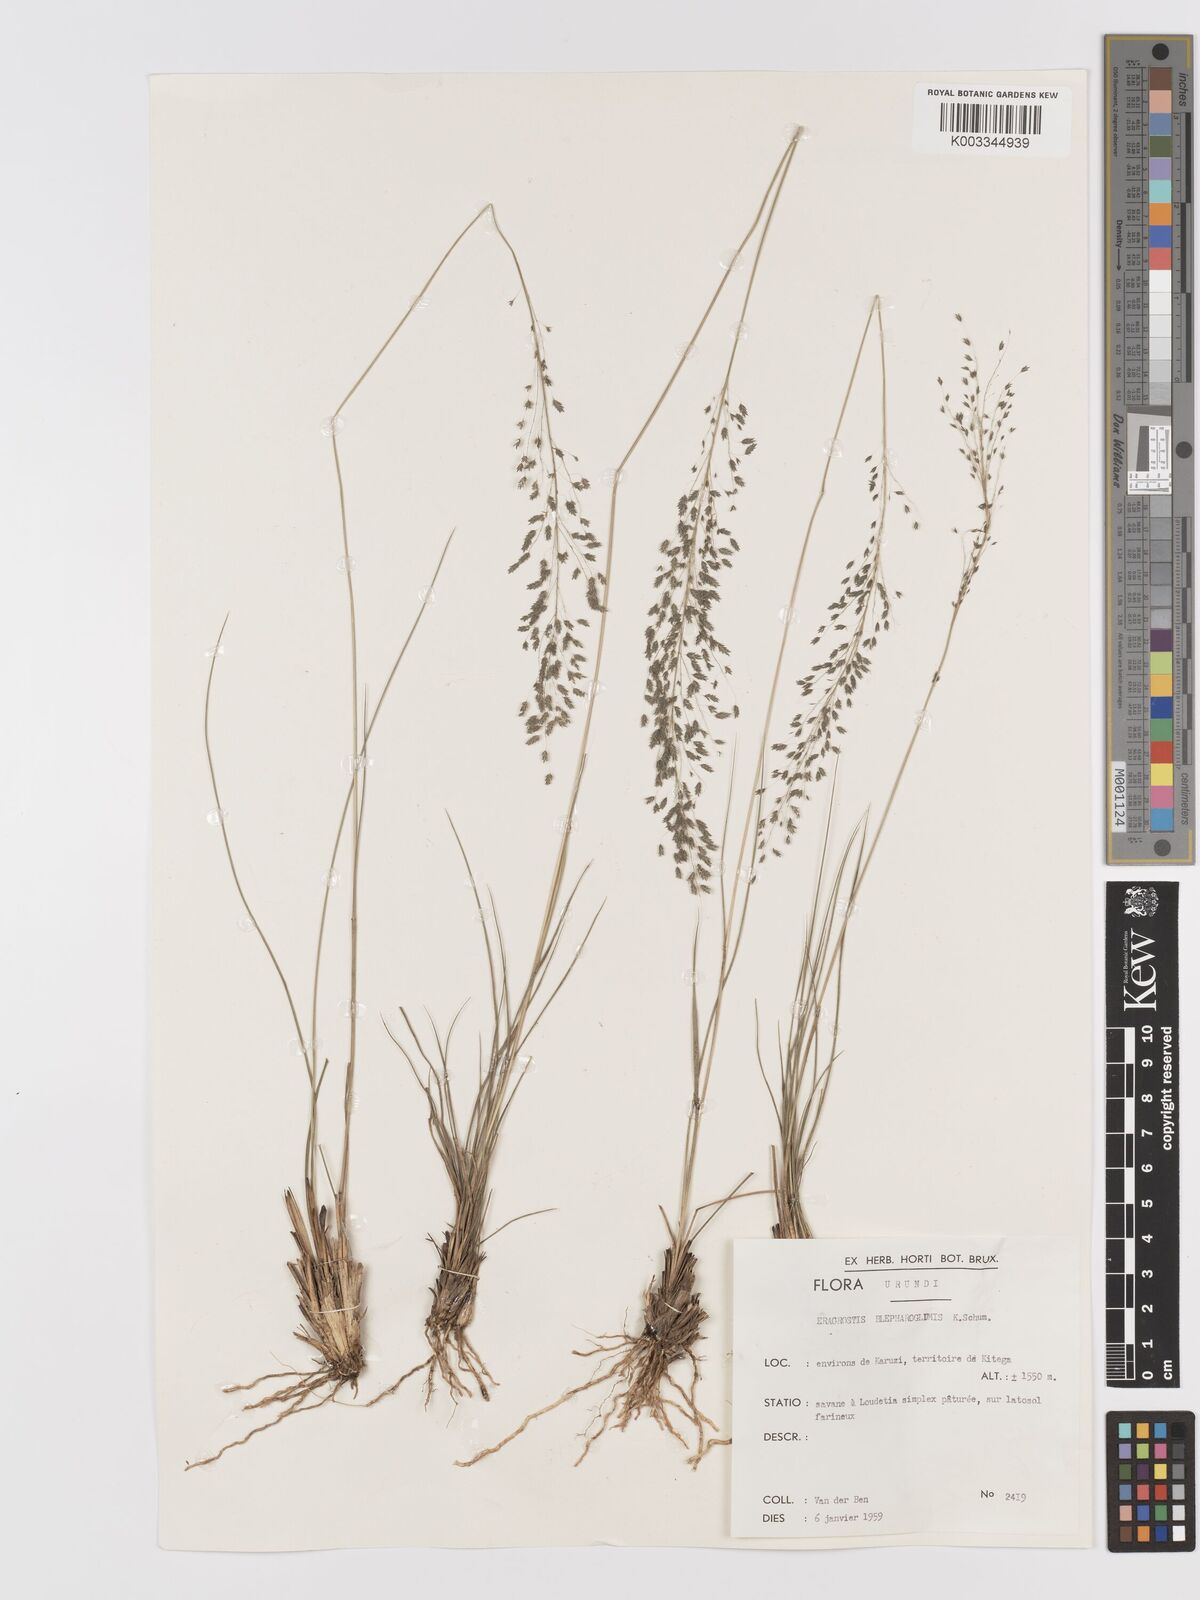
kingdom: Plantae
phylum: Tracheophyta
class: Liliopsida
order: Poales
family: Poaceae
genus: Eragrostis
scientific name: Eragrostis olivacea
